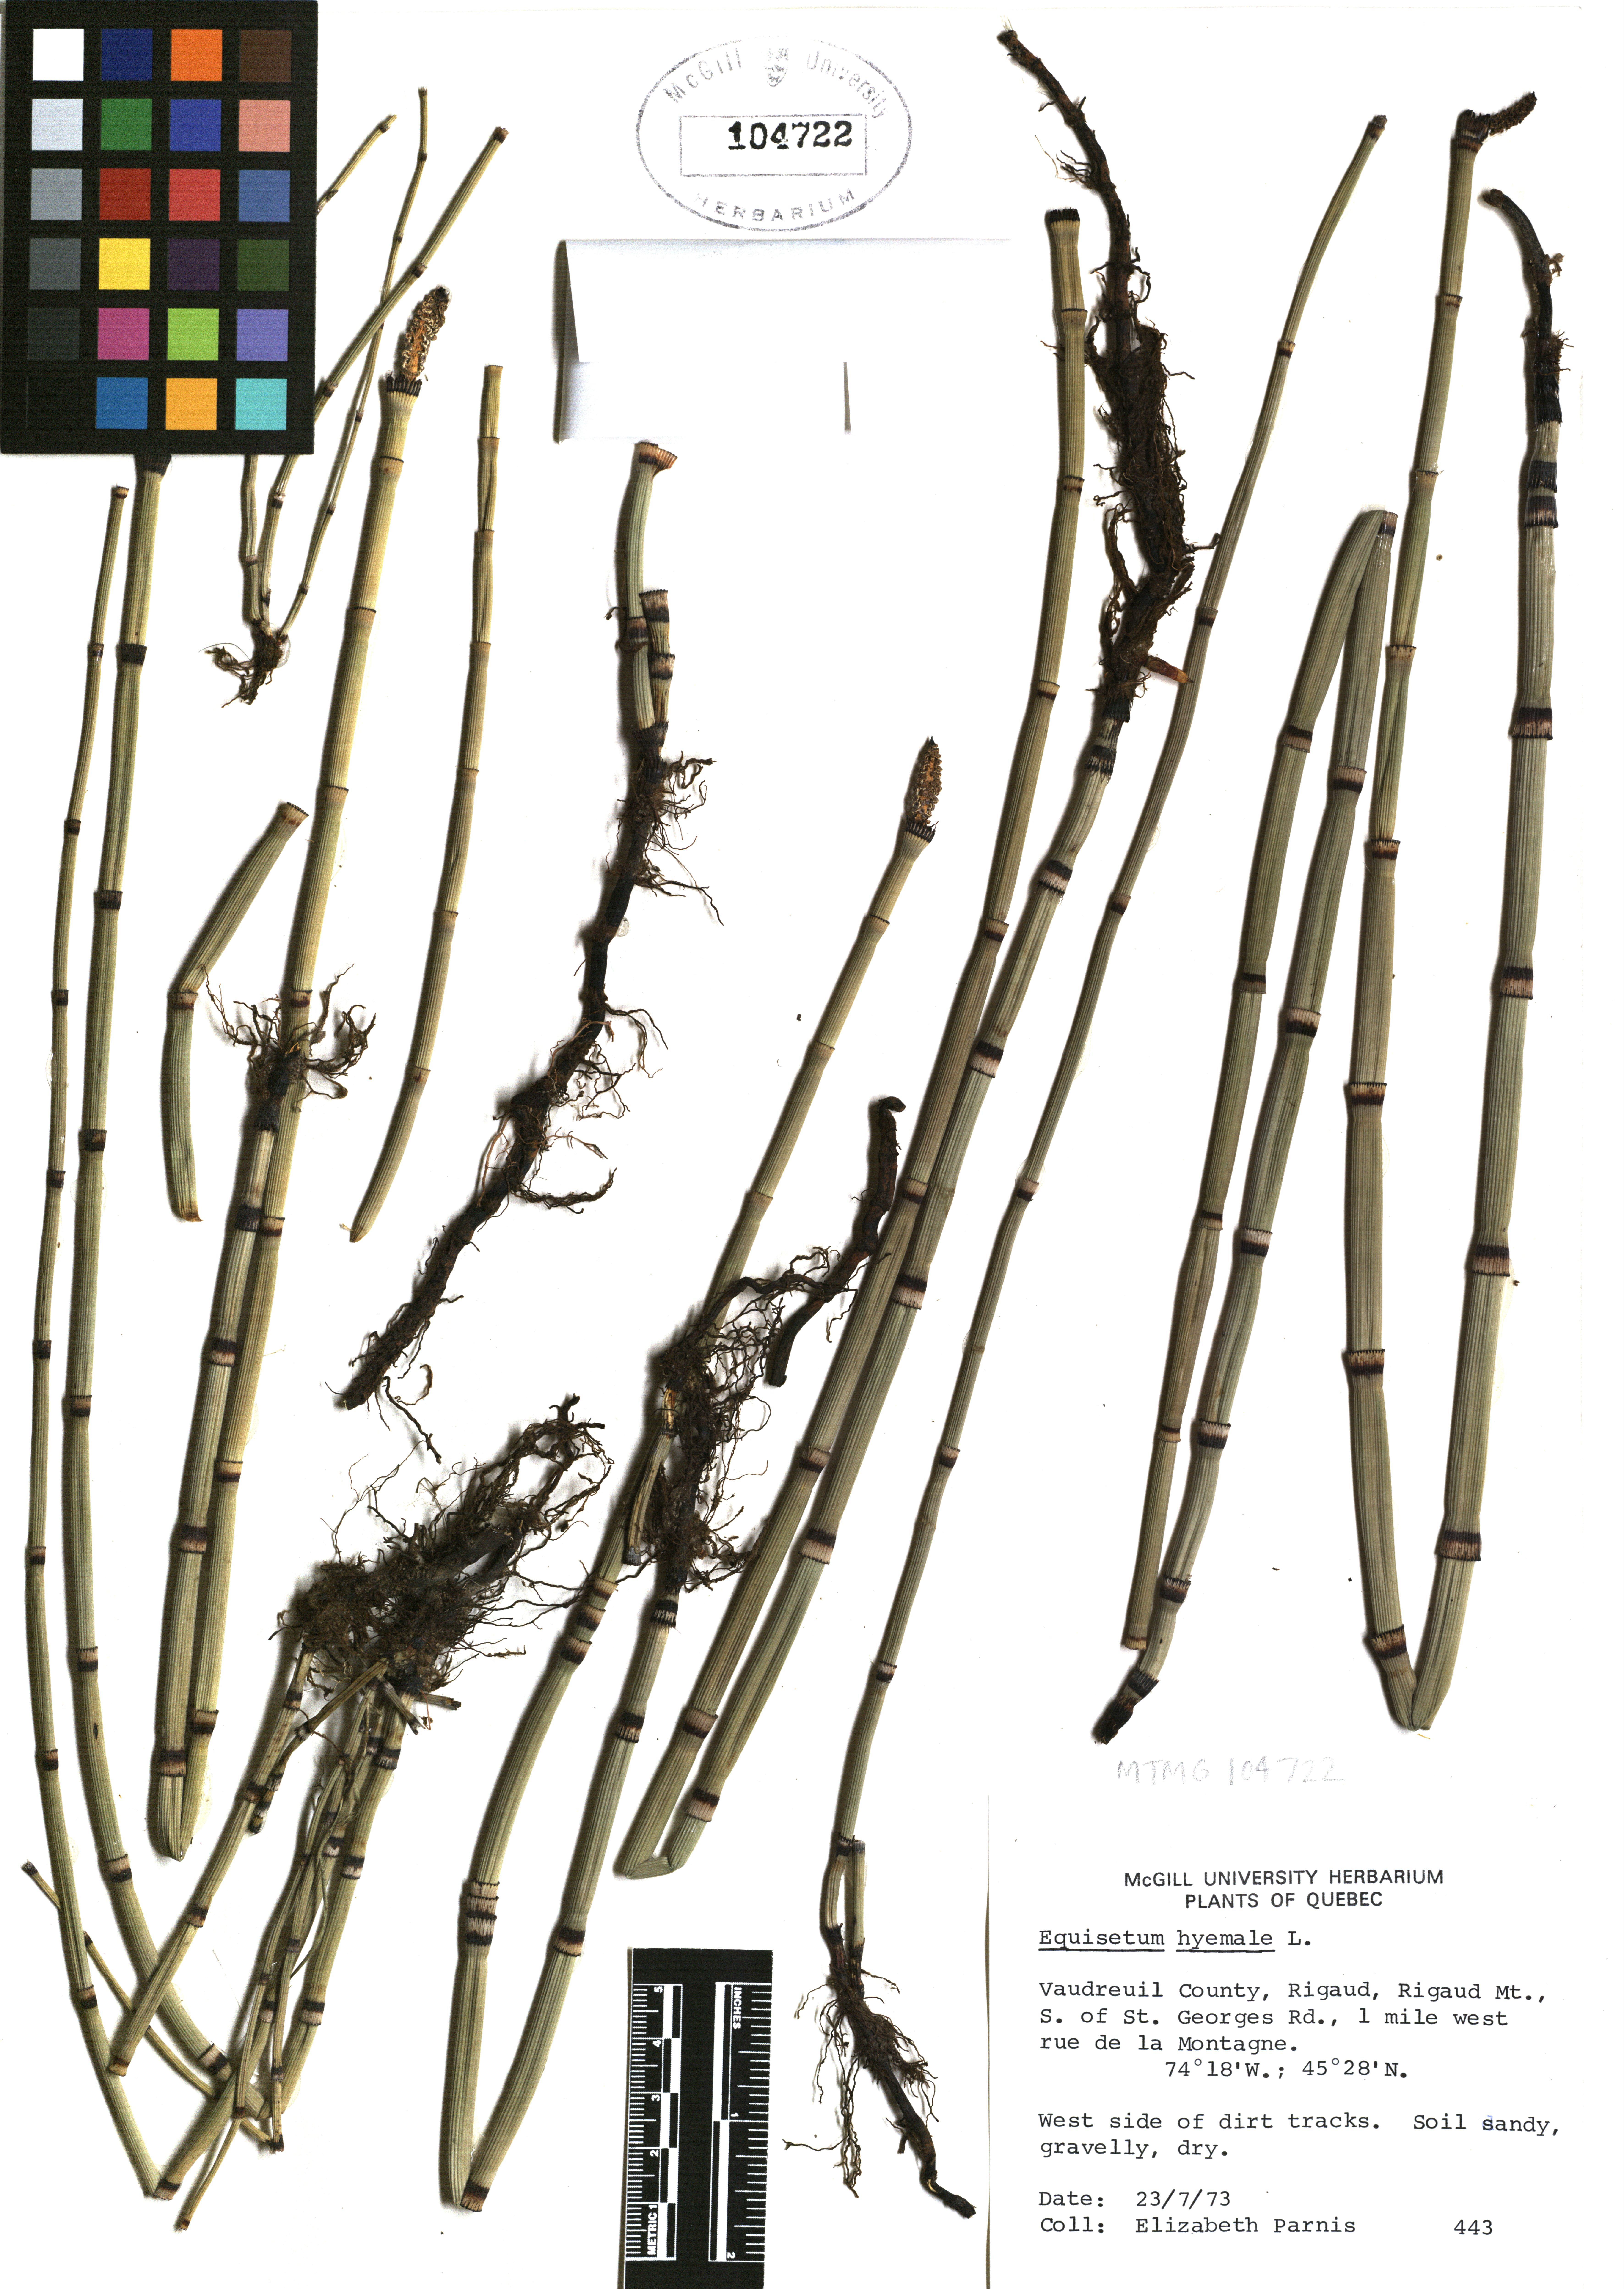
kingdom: Plantae
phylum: Tracheophyta
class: Polypodiopsida
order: Equisetales
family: Equisetaceae
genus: Equisetum
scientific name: Equisetum hyemale
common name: Rough horsetail
